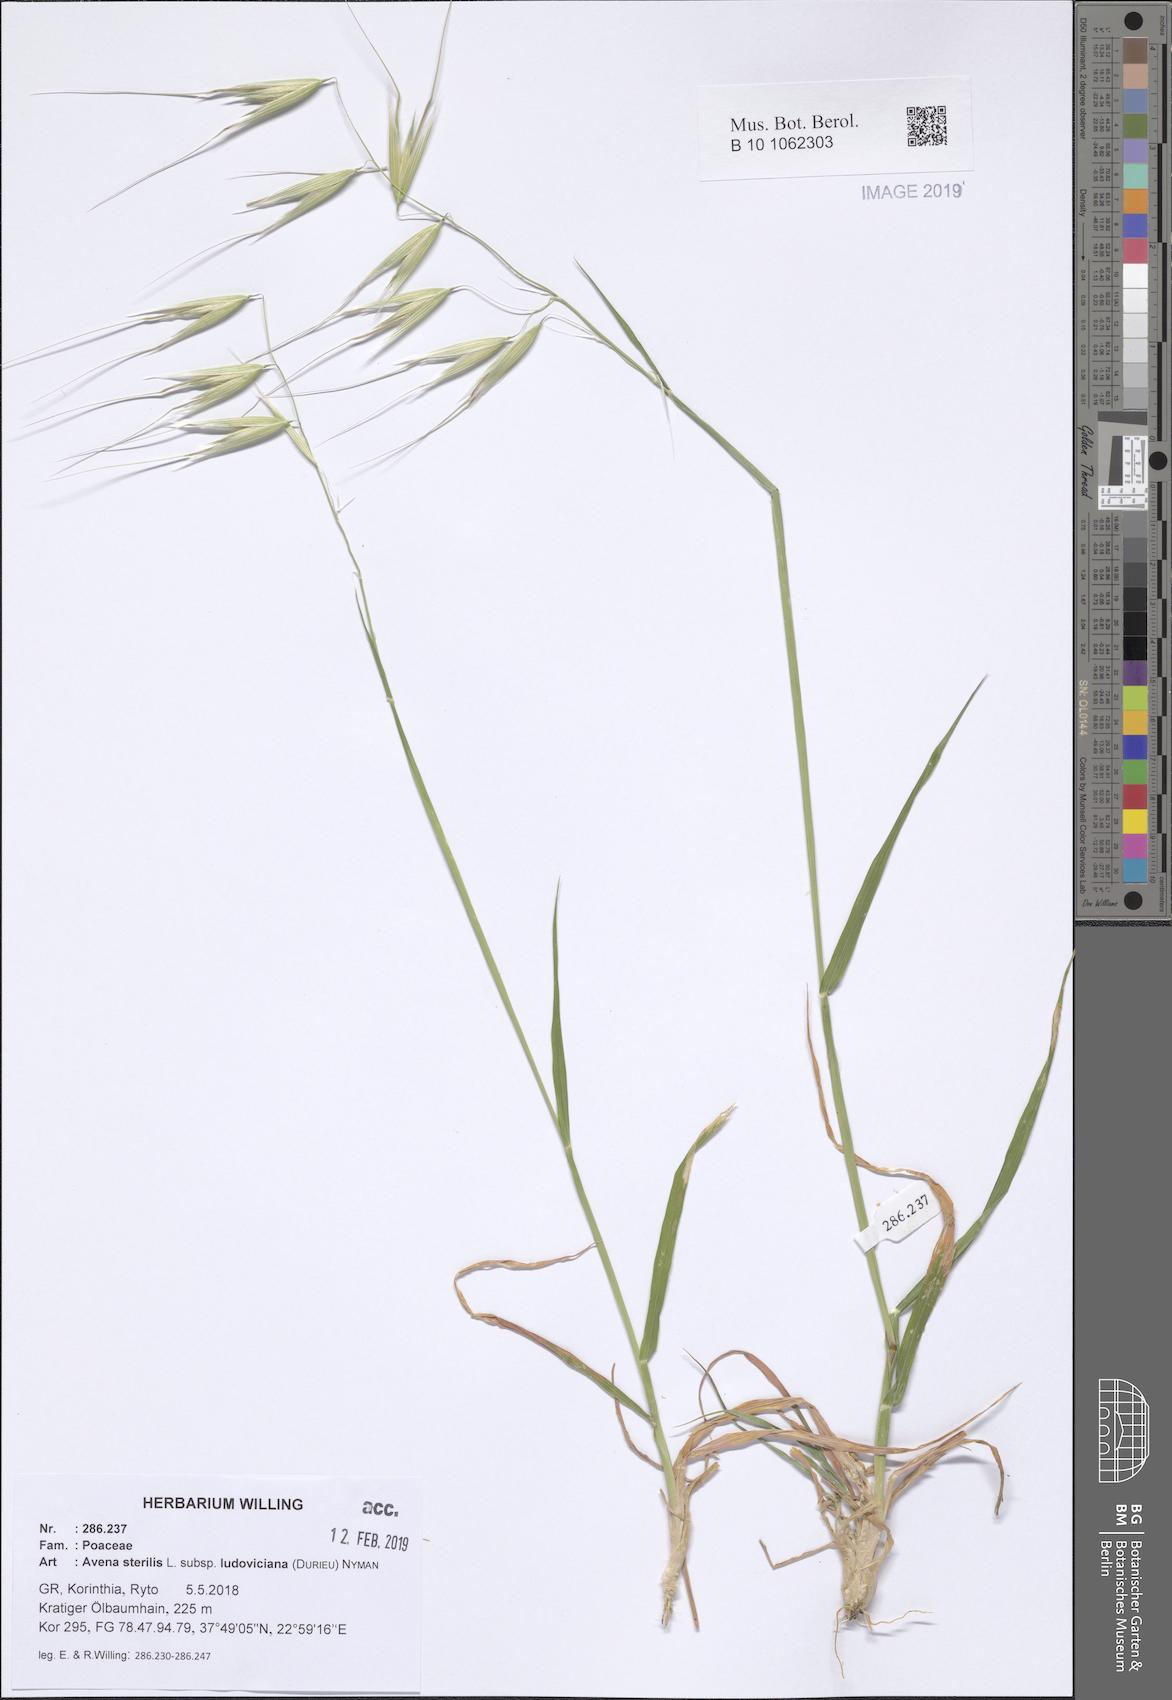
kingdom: Plantae
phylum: Tracheophyta
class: Liliopsida
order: Poales
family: Poaceae
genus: Avena
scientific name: Avena sterilis
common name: Animated oat
